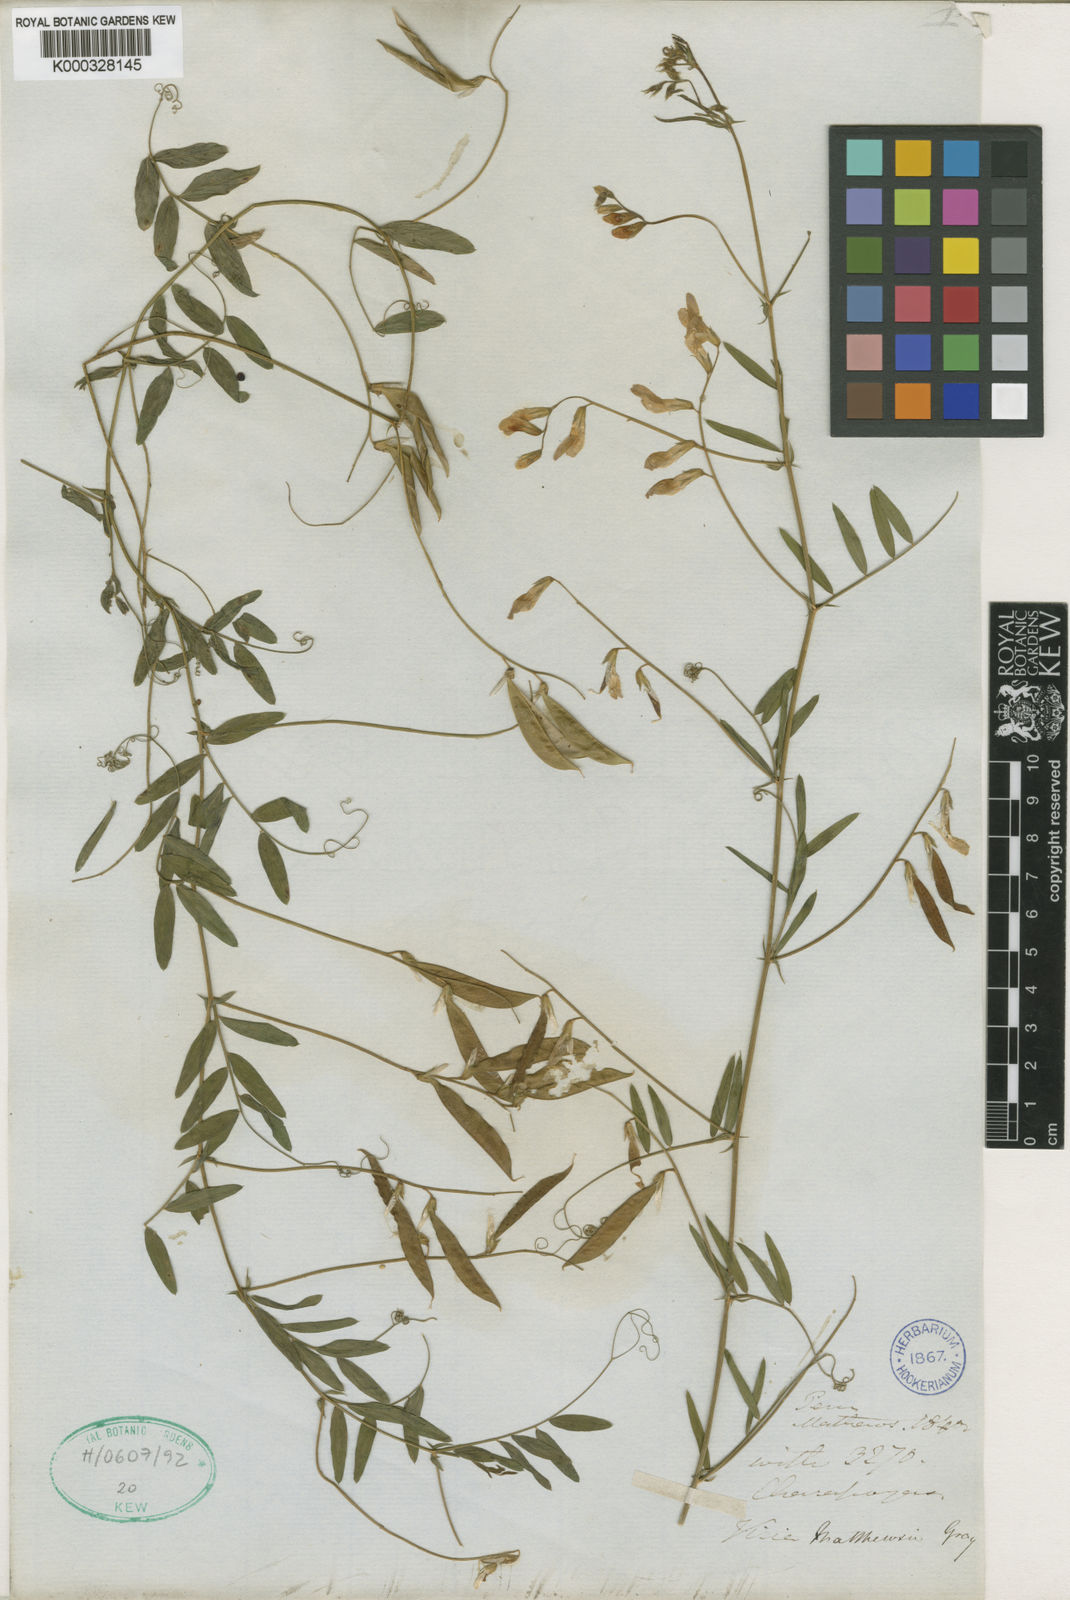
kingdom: Plantae
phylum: Tracheophyta
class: Magnoliopsida
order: Fabales
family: Fabaceae
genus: Vicia
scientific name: Vicia
